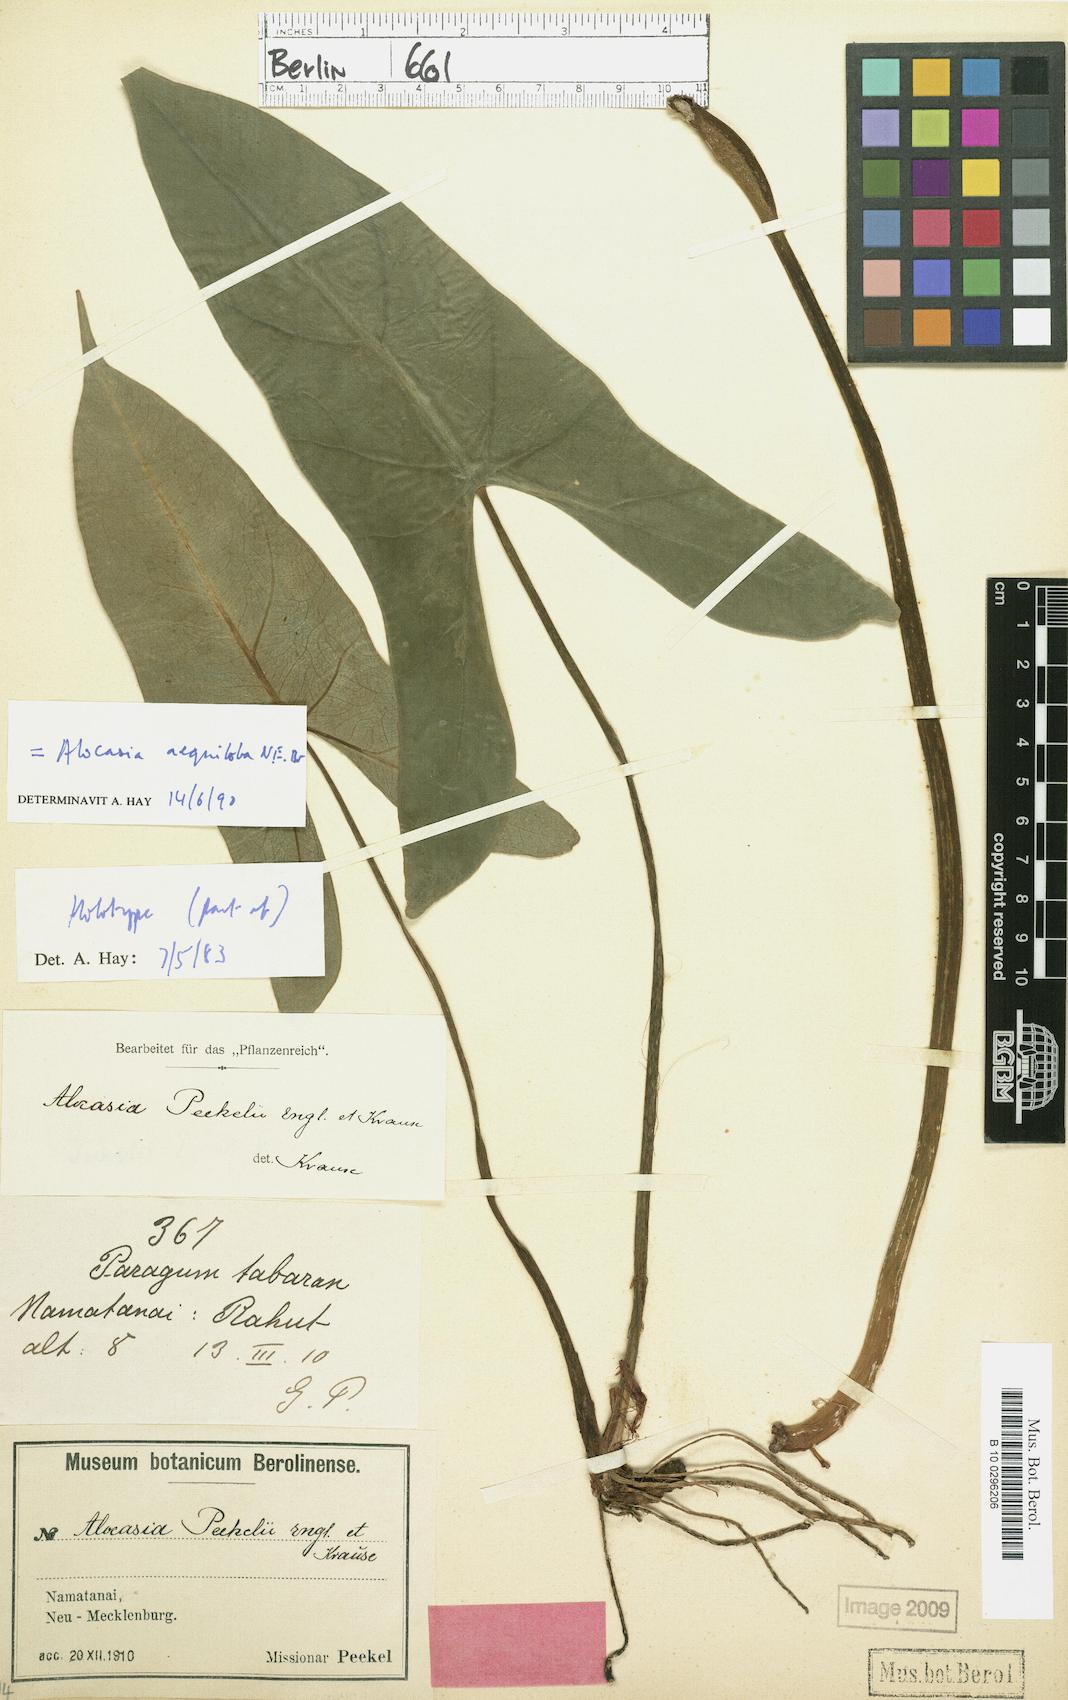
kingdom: Plantae
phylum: Tracheophyta
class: Liliopsida
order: Alismatales
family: Araceae
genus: Alocasia
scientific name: Alocasia aequiloba
